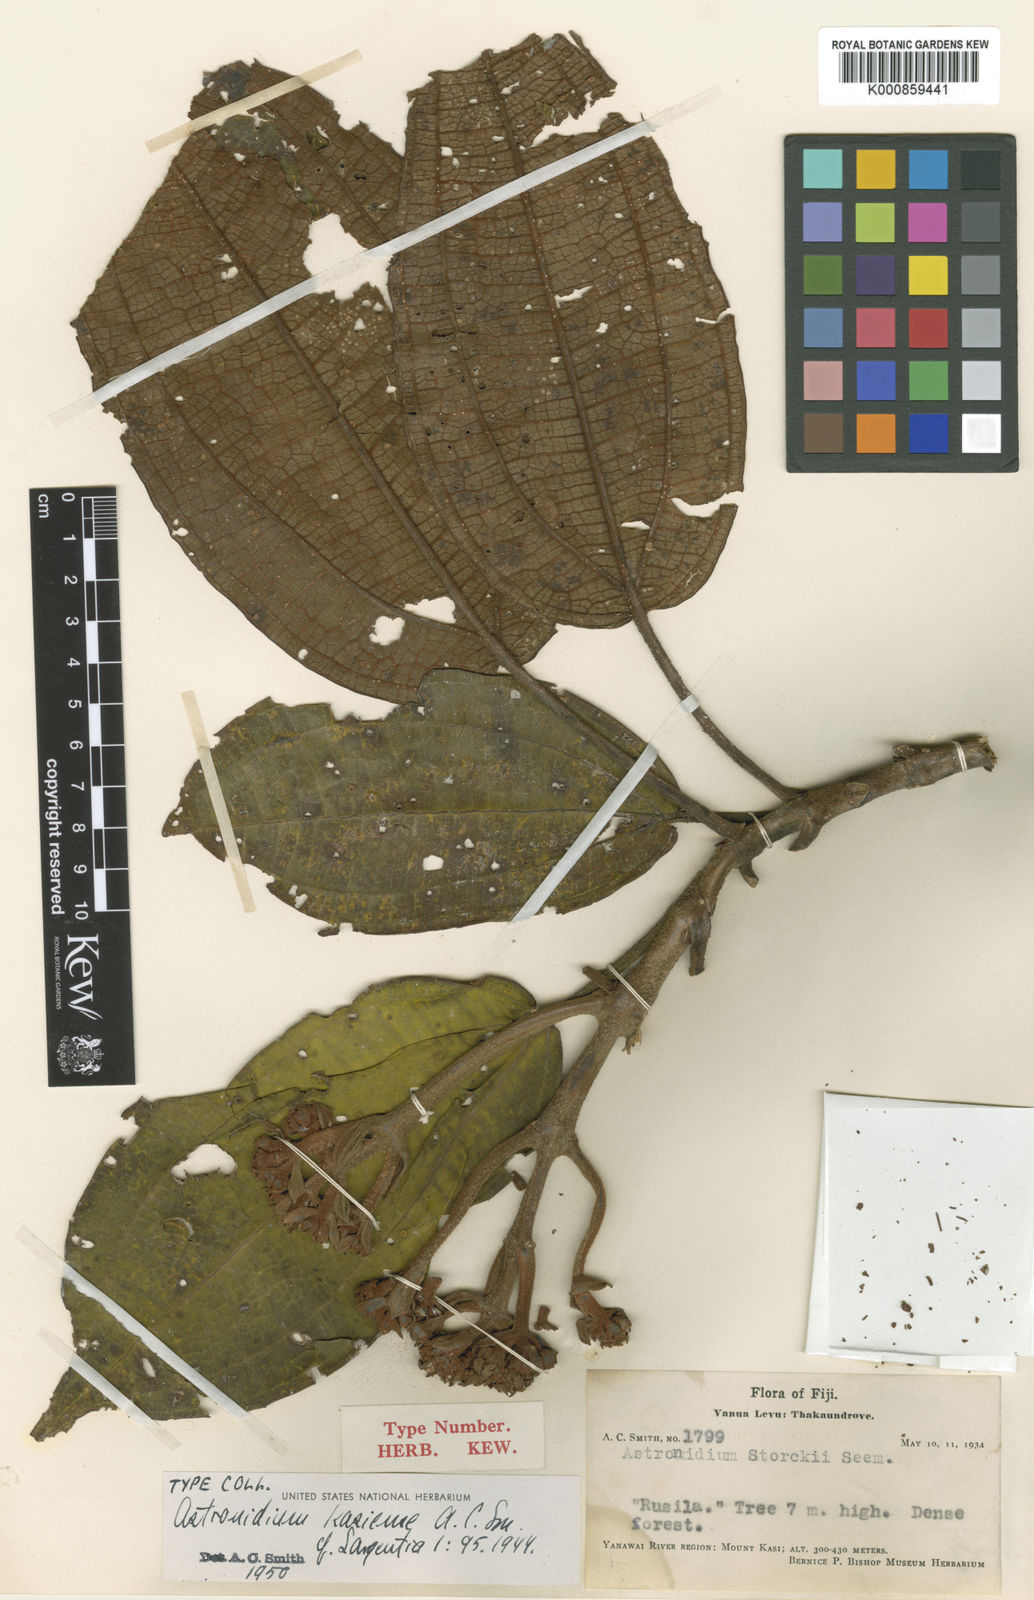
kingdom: Plantae
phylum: Tracheophyta
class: Magnoliopsida
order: Myrtales
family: Melastomataceae
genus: Astronidium
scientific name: Astronidium kasiense
